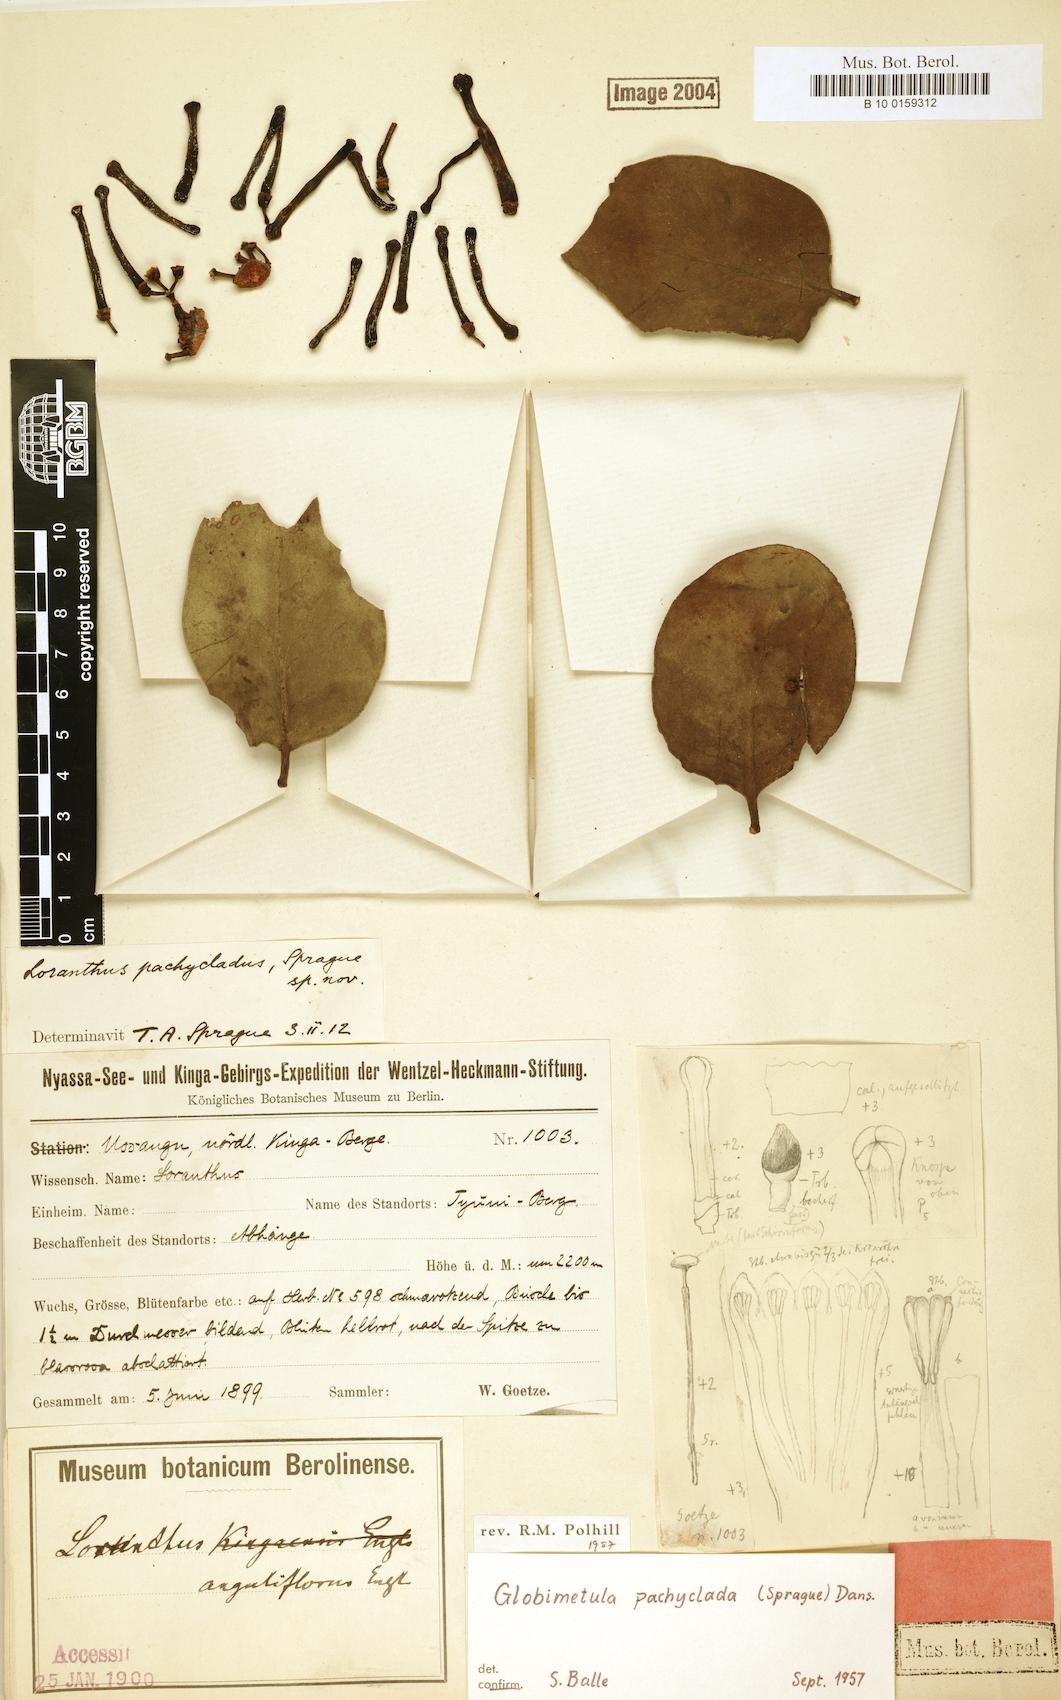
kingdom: Plantae
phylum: Tracheophyta
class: Magnoliopsida
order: Santalales
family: Loranthaceae
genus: Globimetula
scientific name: Globimetula pachyclada
